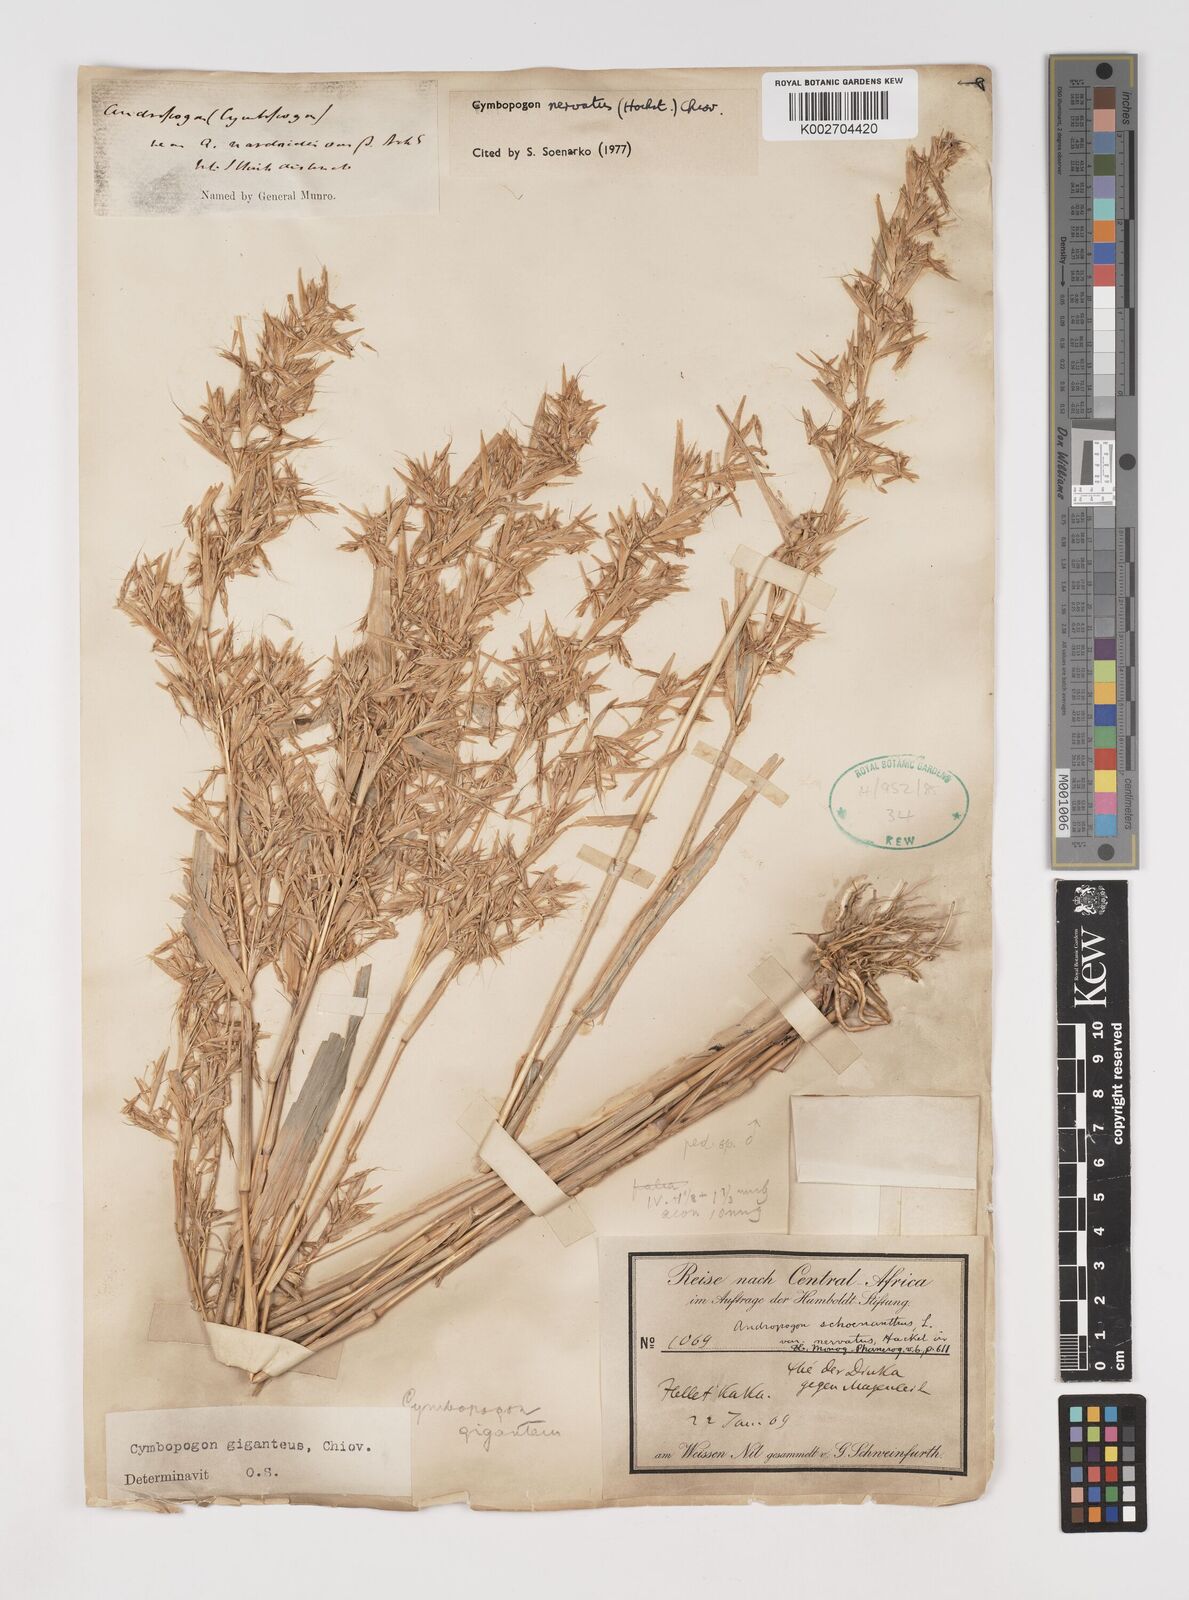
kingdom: Plantae
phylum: Tracheophyta
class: Liliopsida
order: Poales
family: Poaceae
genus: Cymbopogon
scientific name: Cymbopogon giganteus
